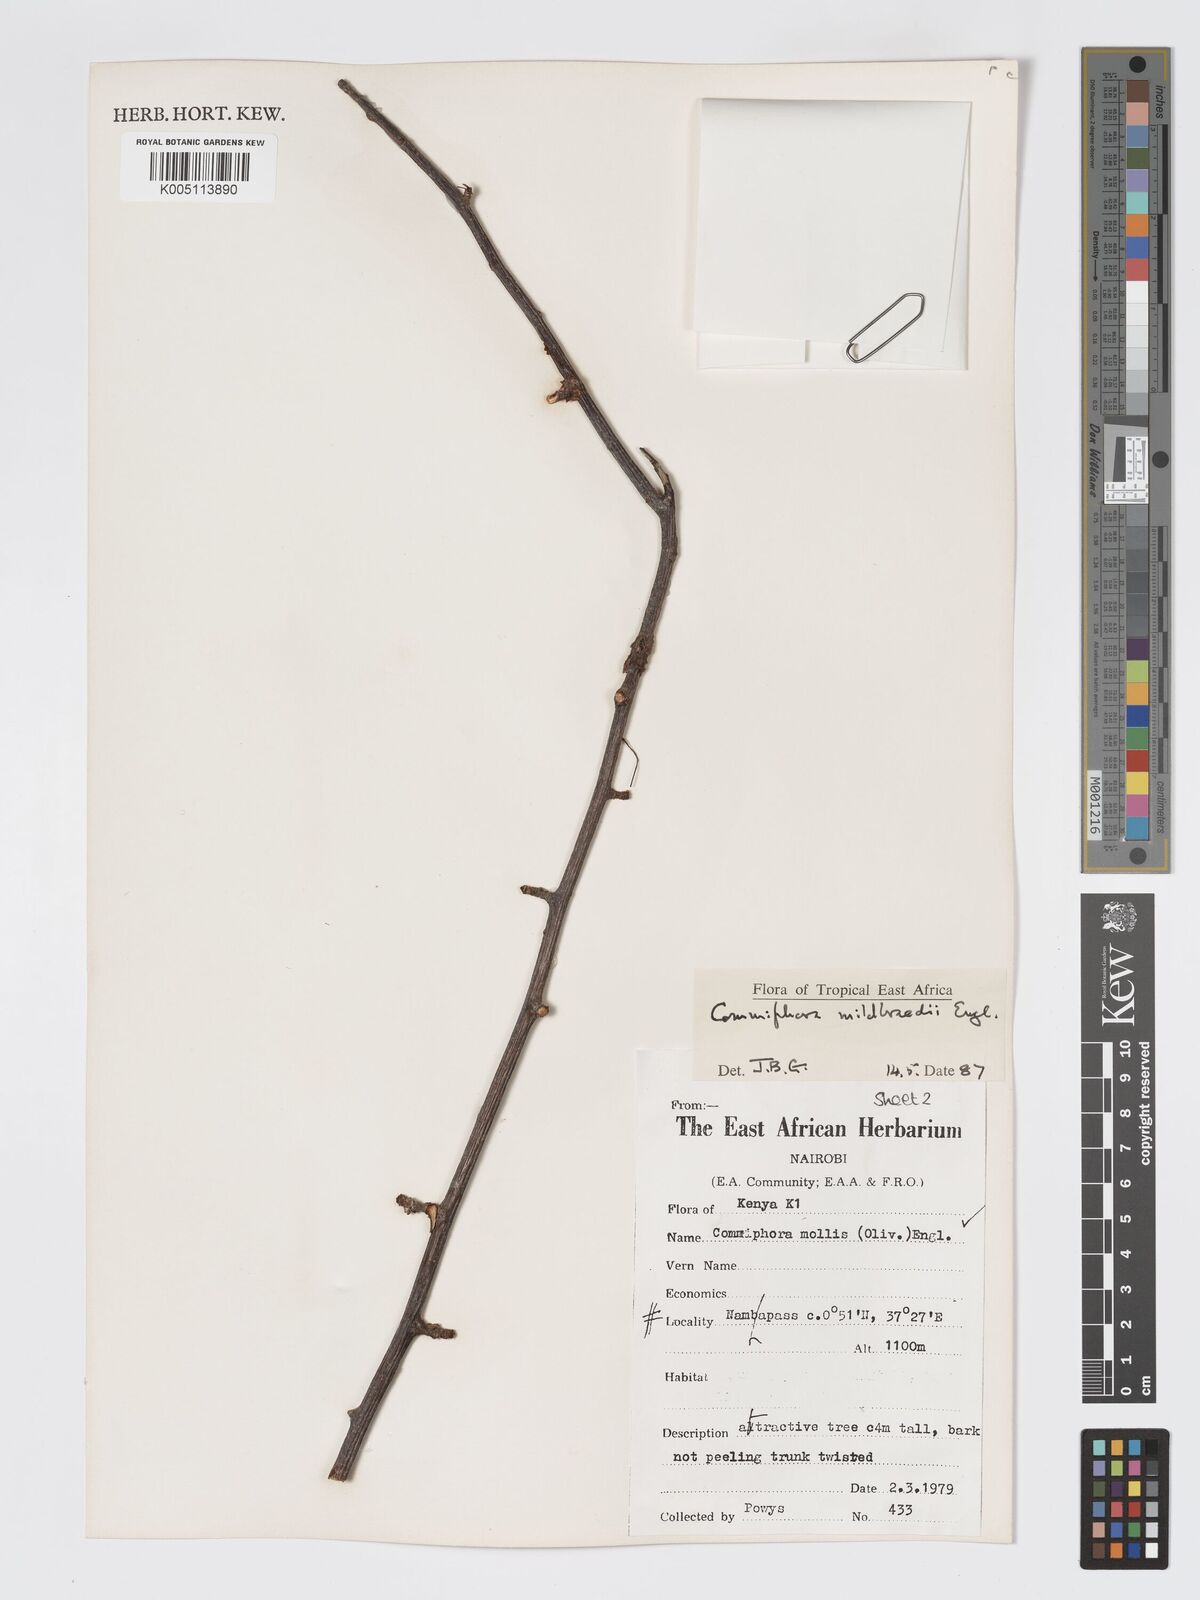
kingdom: Plantae
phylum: Tracheophyta
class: Magnoliopsida
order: Sapindales
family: Burseraceae
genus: Commiphora
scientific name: Commiphora mildbraedii
